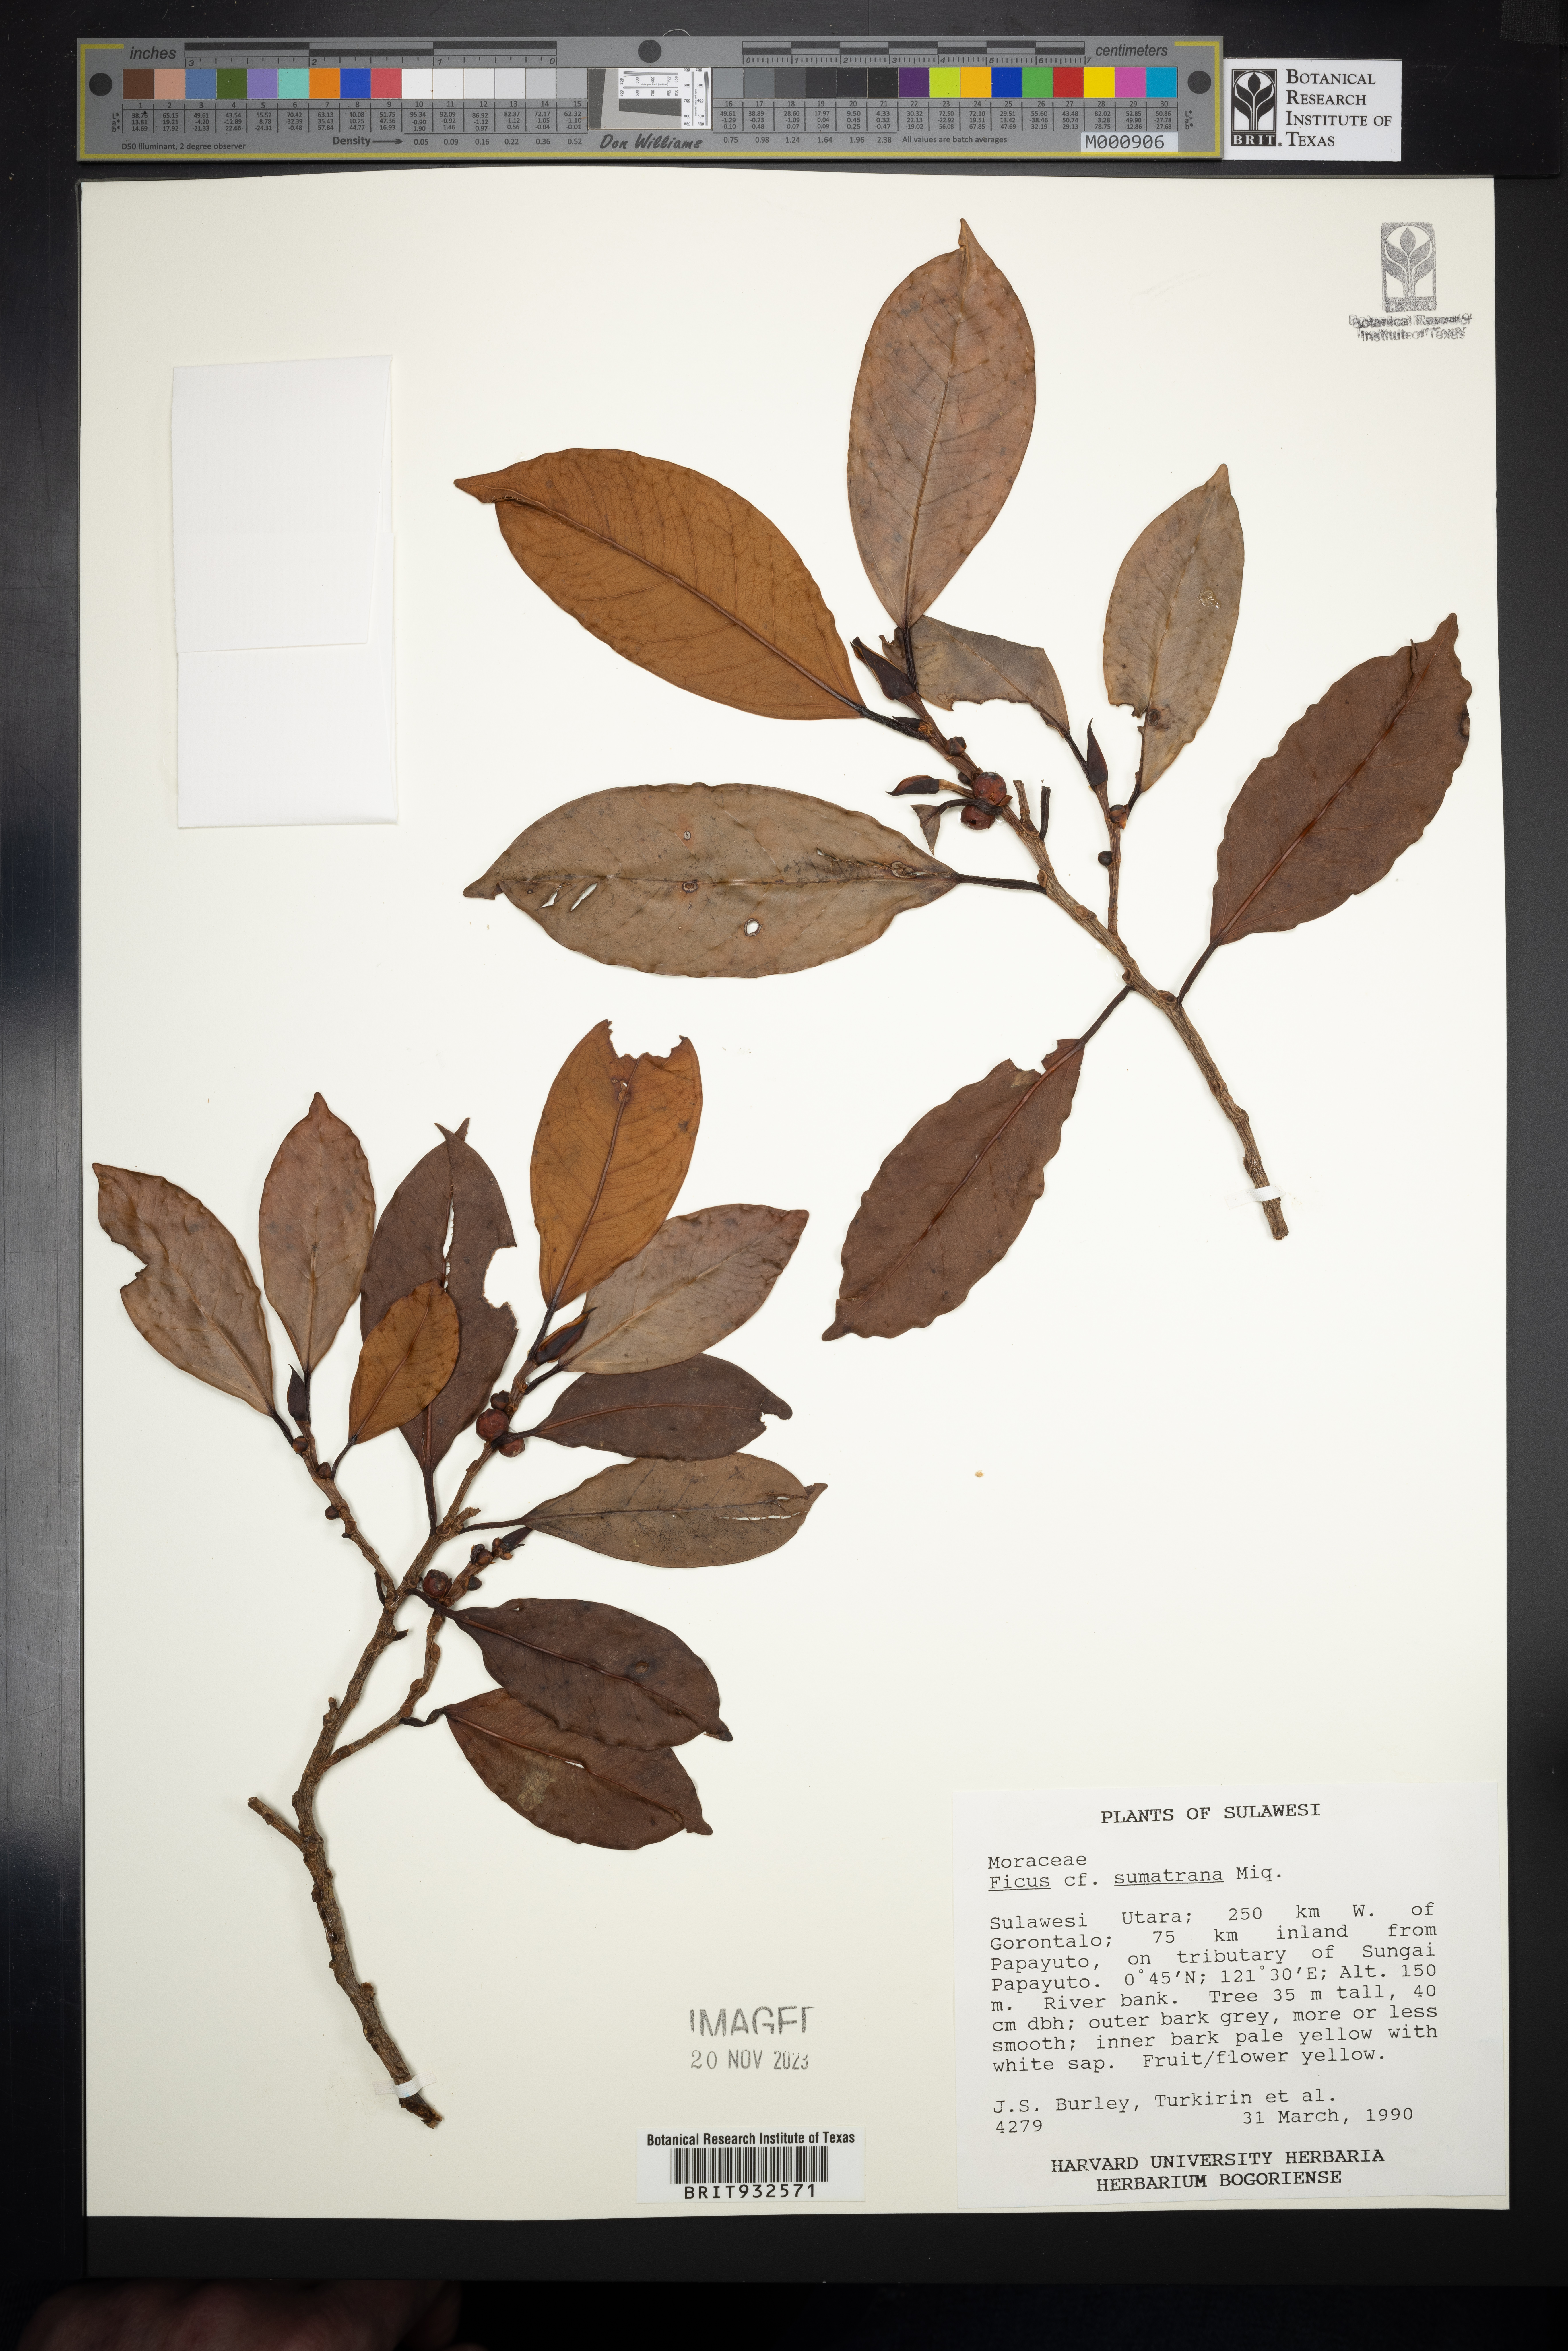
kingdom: Plantae
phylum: Tracheophyta
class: Magnoliopsida
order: Rosales
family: Moraceae
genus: Ficus
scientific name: Ficus sumatrana
